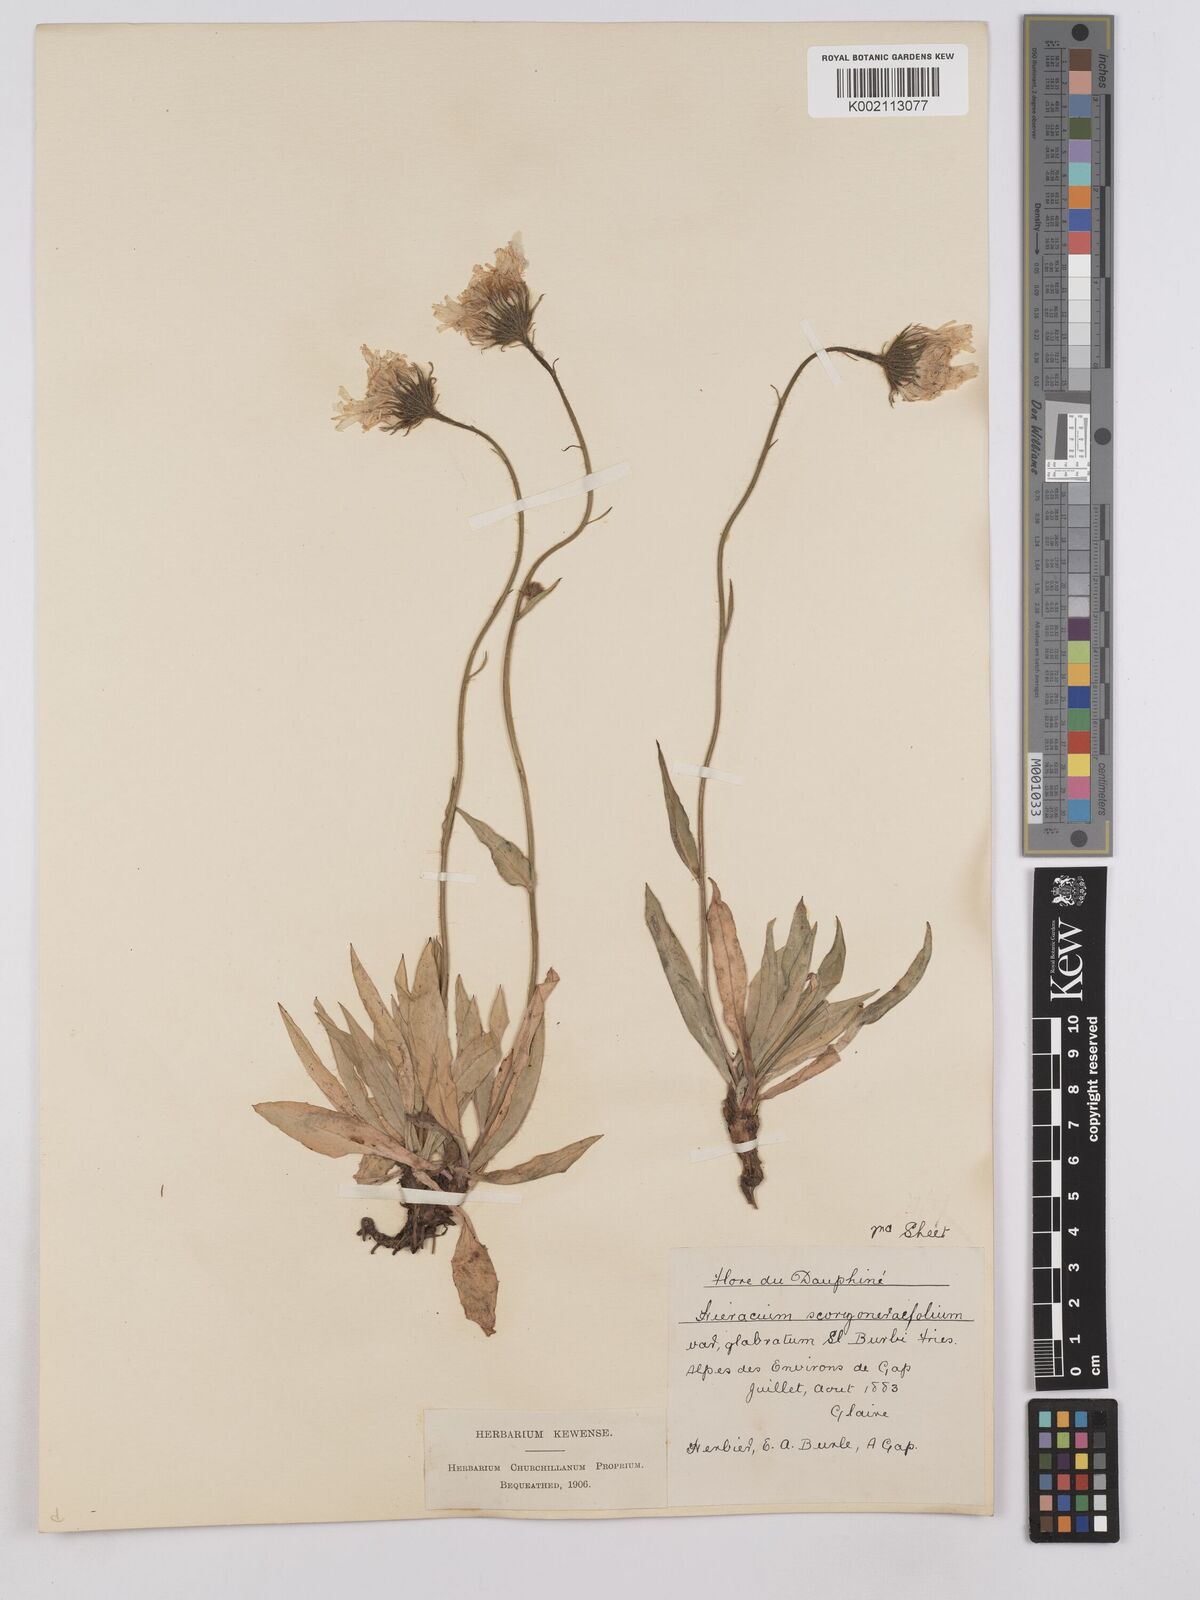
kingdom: Plantae
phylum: Tracheophyta
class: Magnoliopsida
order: Asterales
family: Asteraceae
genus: Hieracium
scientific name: Hieracium bupleuroides
